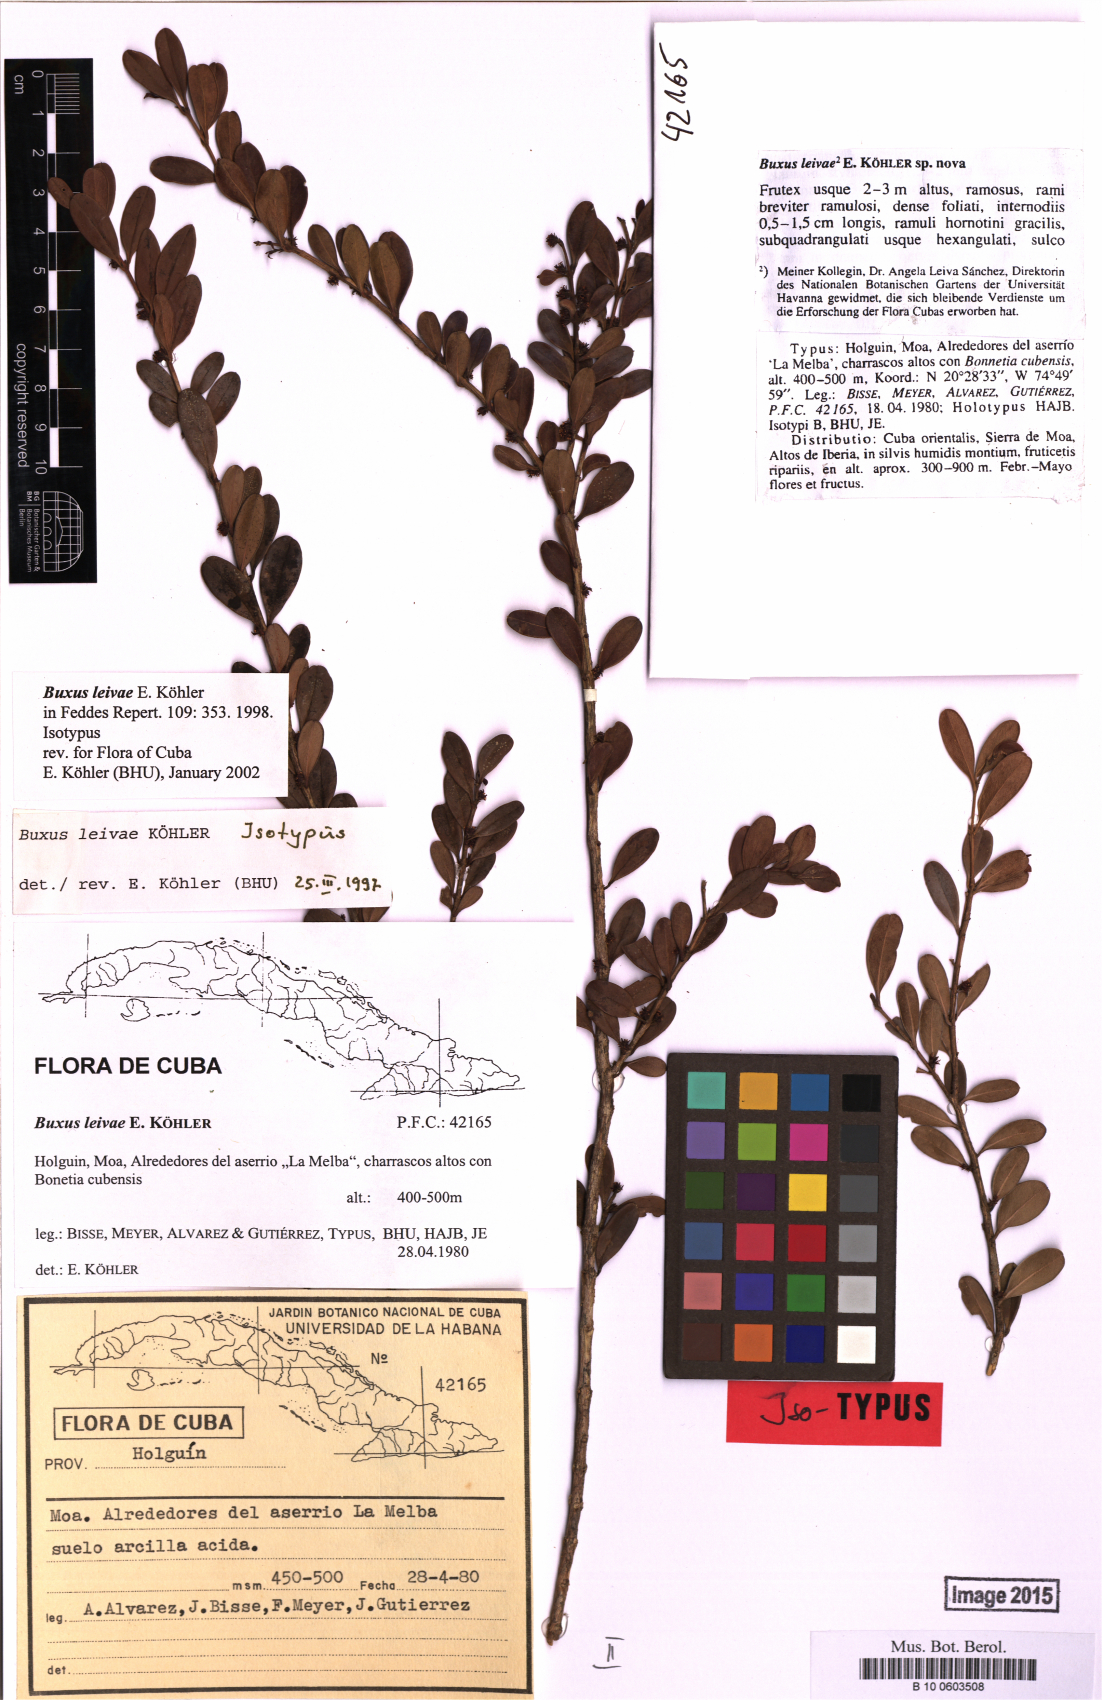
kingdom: Plantae
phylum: Tracheophyta
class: Magnoliopsida
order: Buxales
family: Buxaceae
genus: Buxus
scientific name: Buxus leivae
